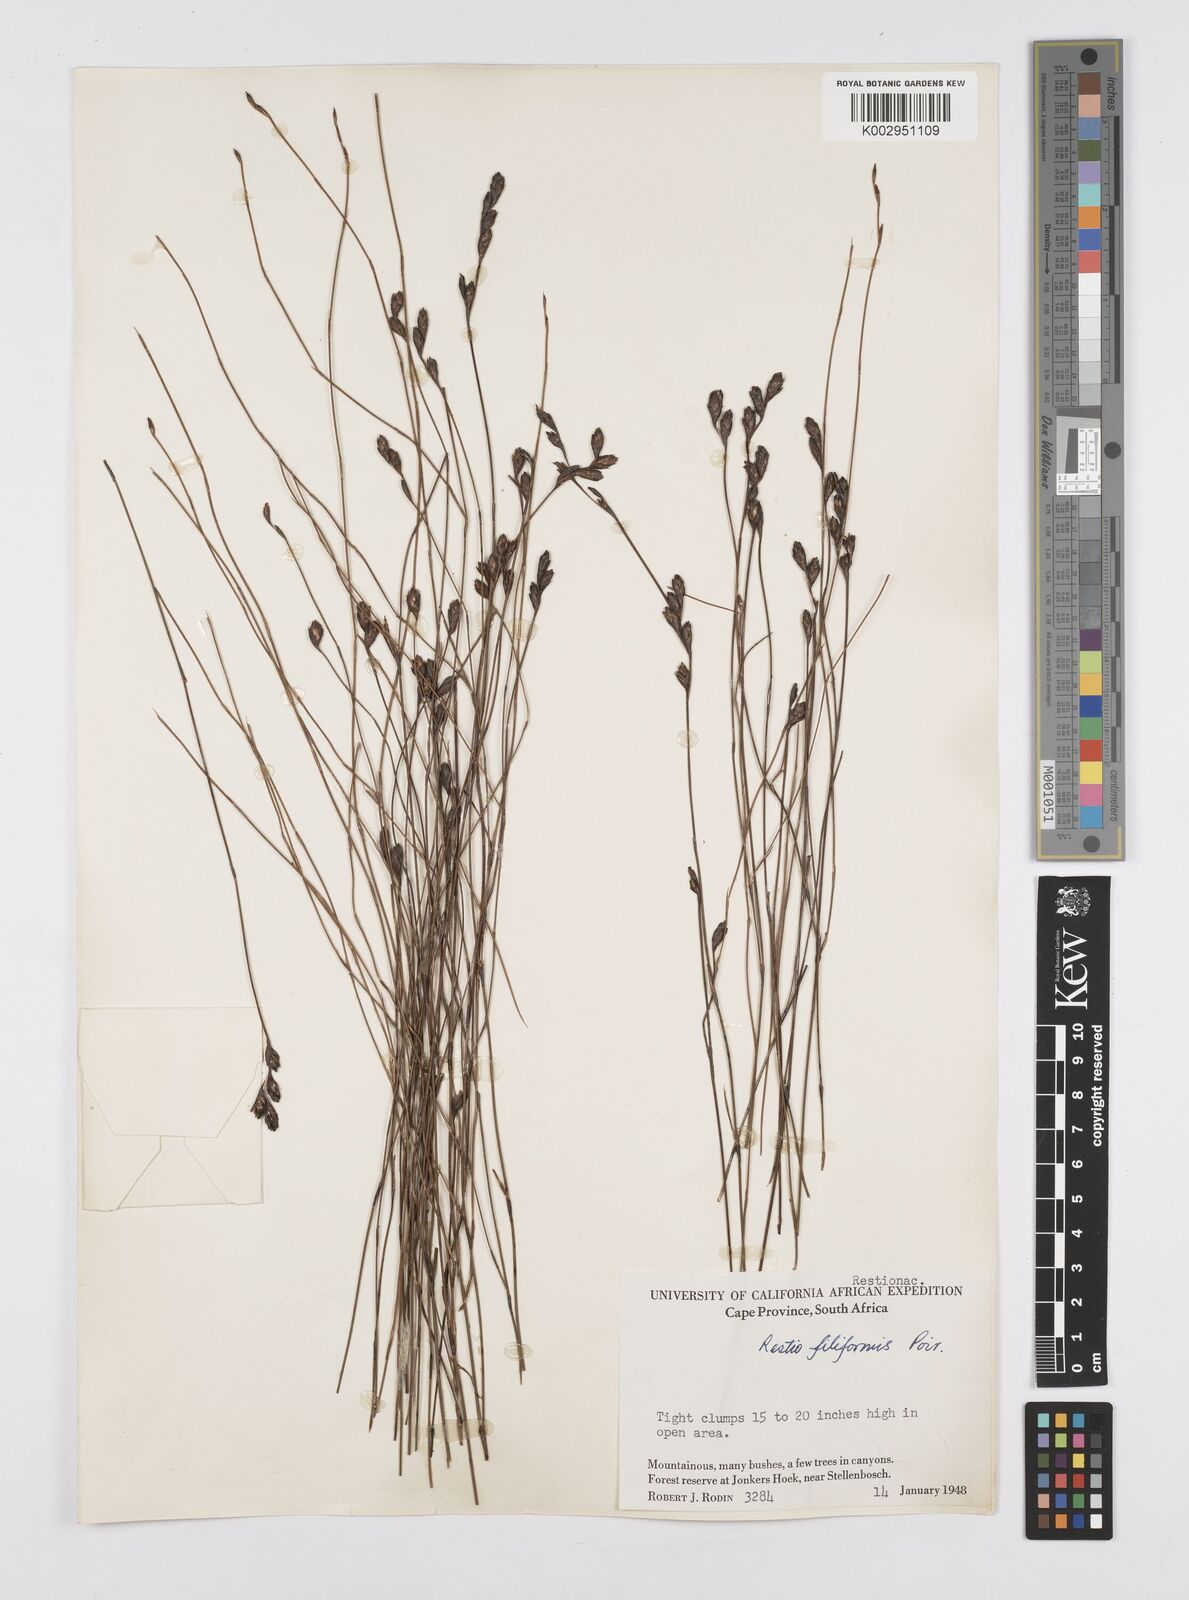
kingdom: Plantae
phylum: Tracheophyta
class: Liliopsida
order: Poales
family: Restionaceae
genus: Restio
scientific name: Restio filiformis
